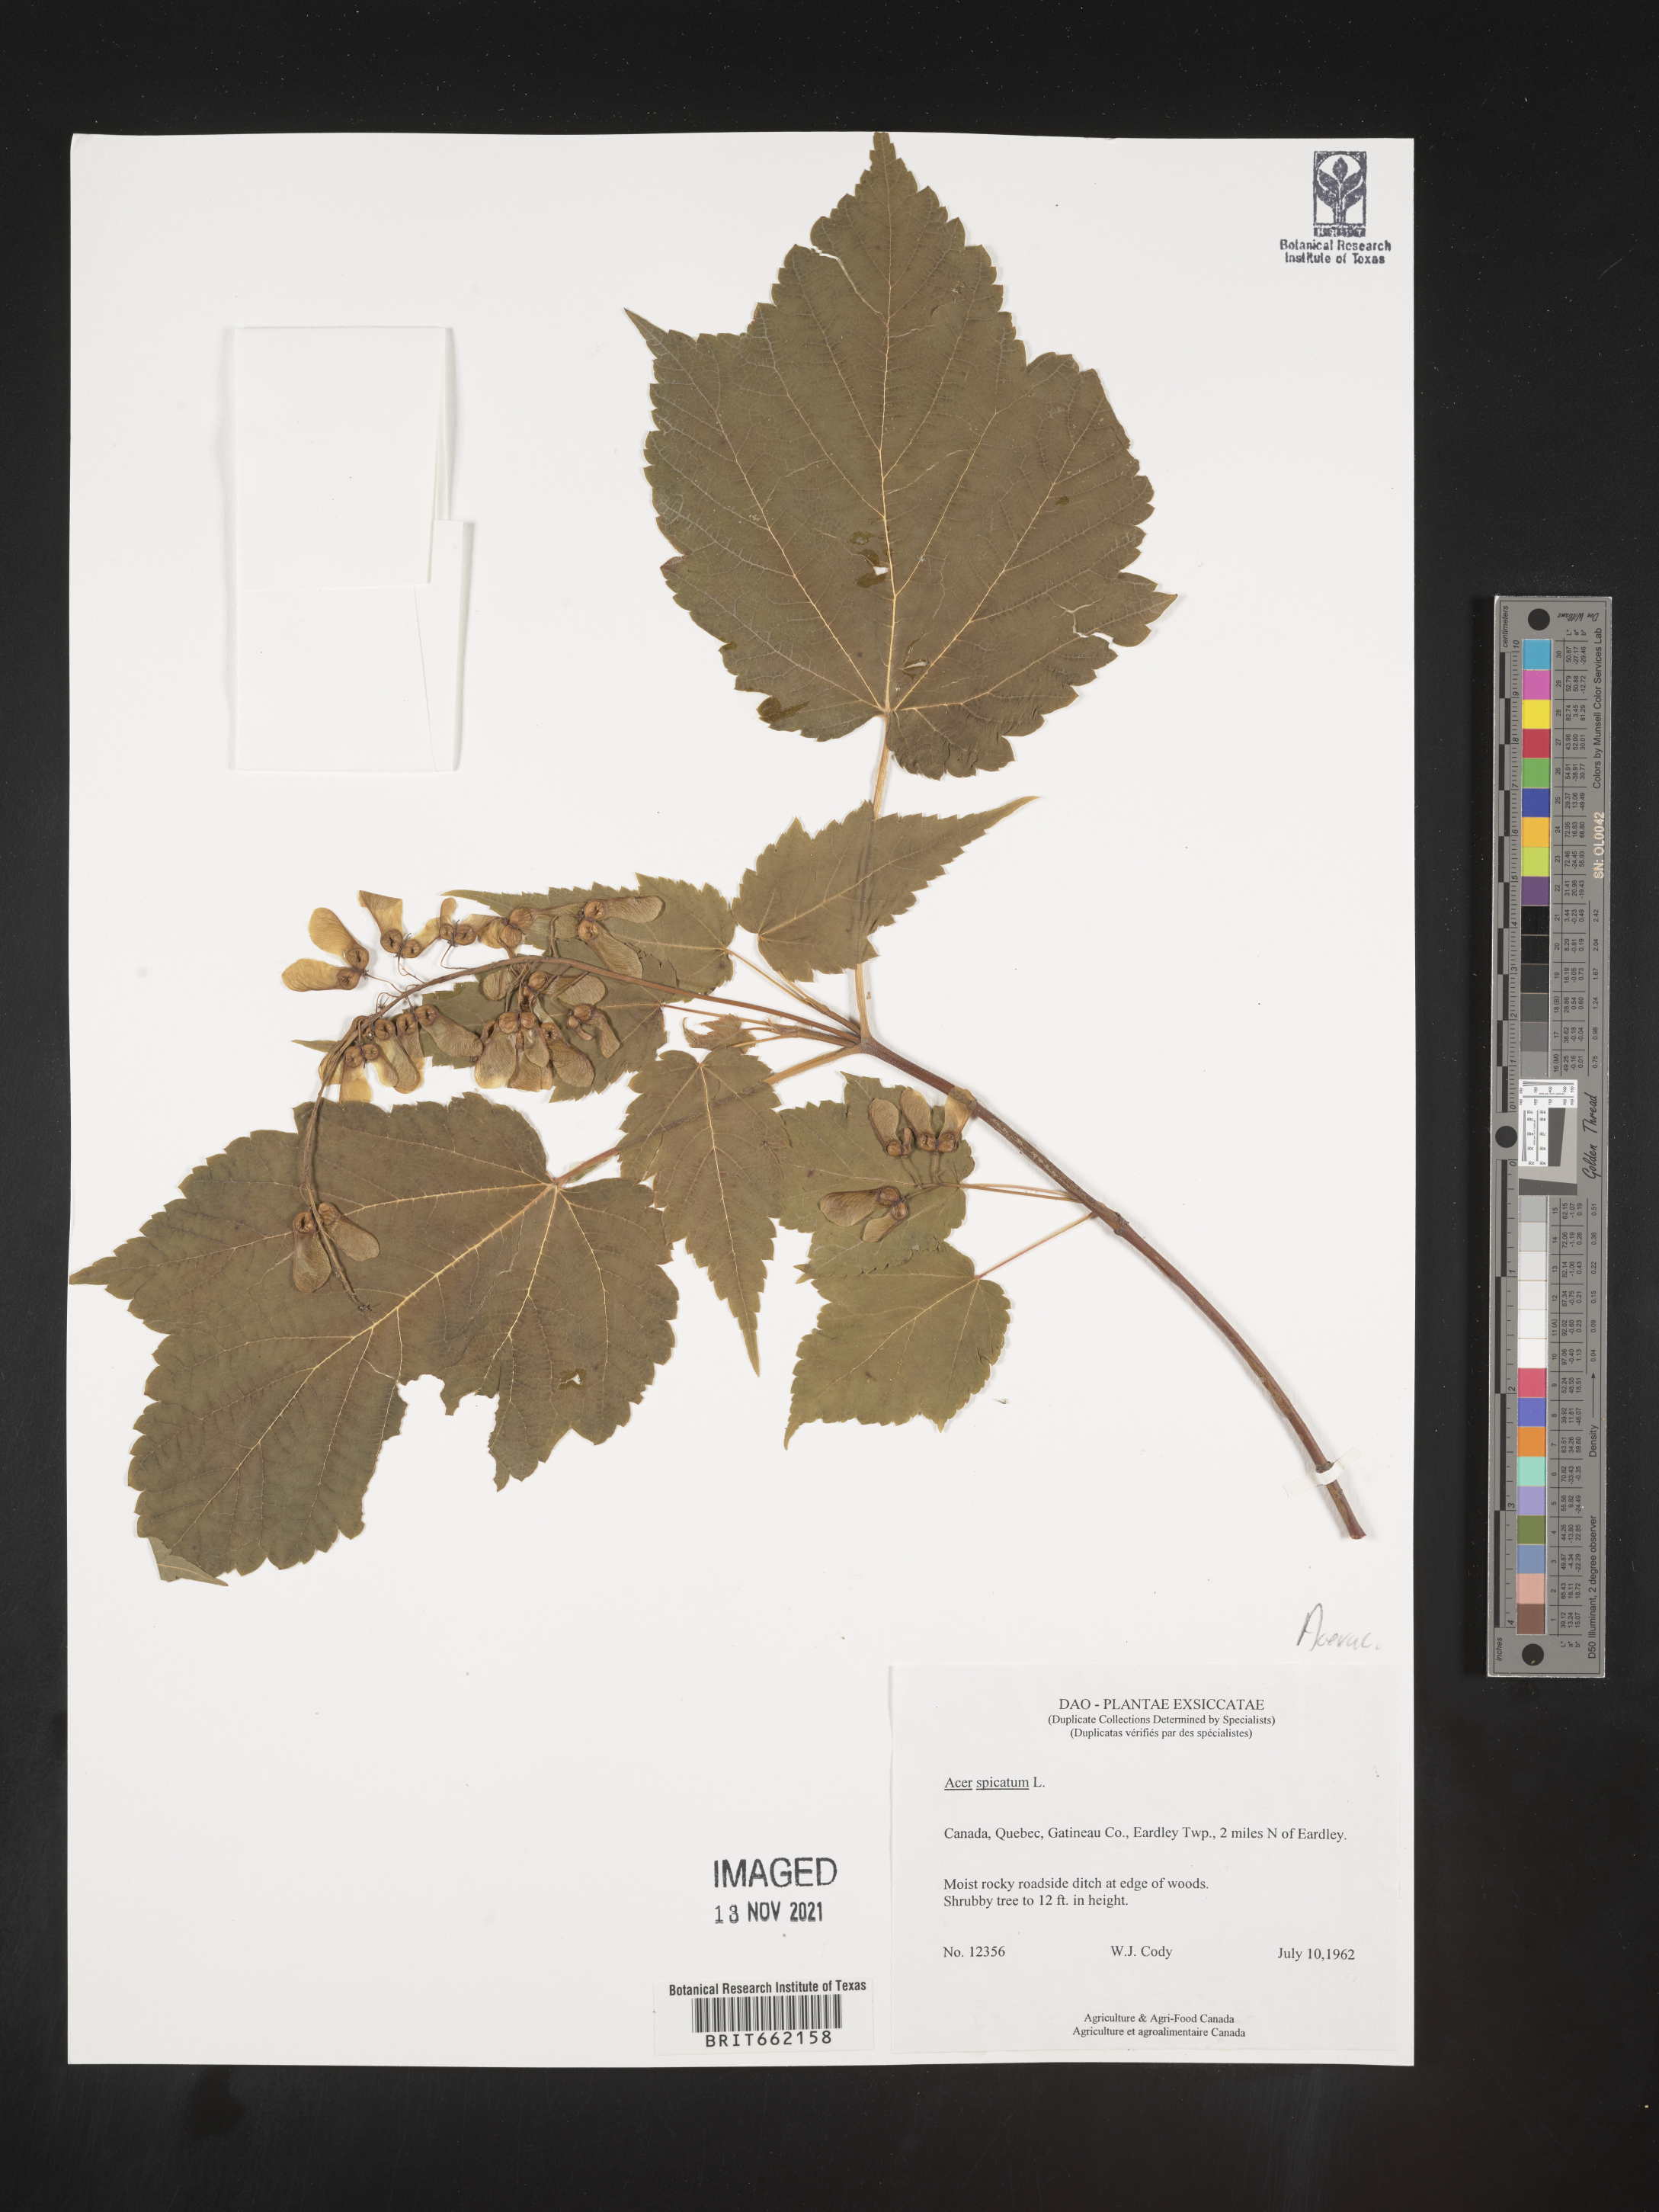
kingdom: Plantae
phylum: Tracheophyta
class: Magnoliopsida
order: Sapindales
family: Sapindaceae
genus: Acer
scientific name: Acer spicatum
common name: Mountain maple
